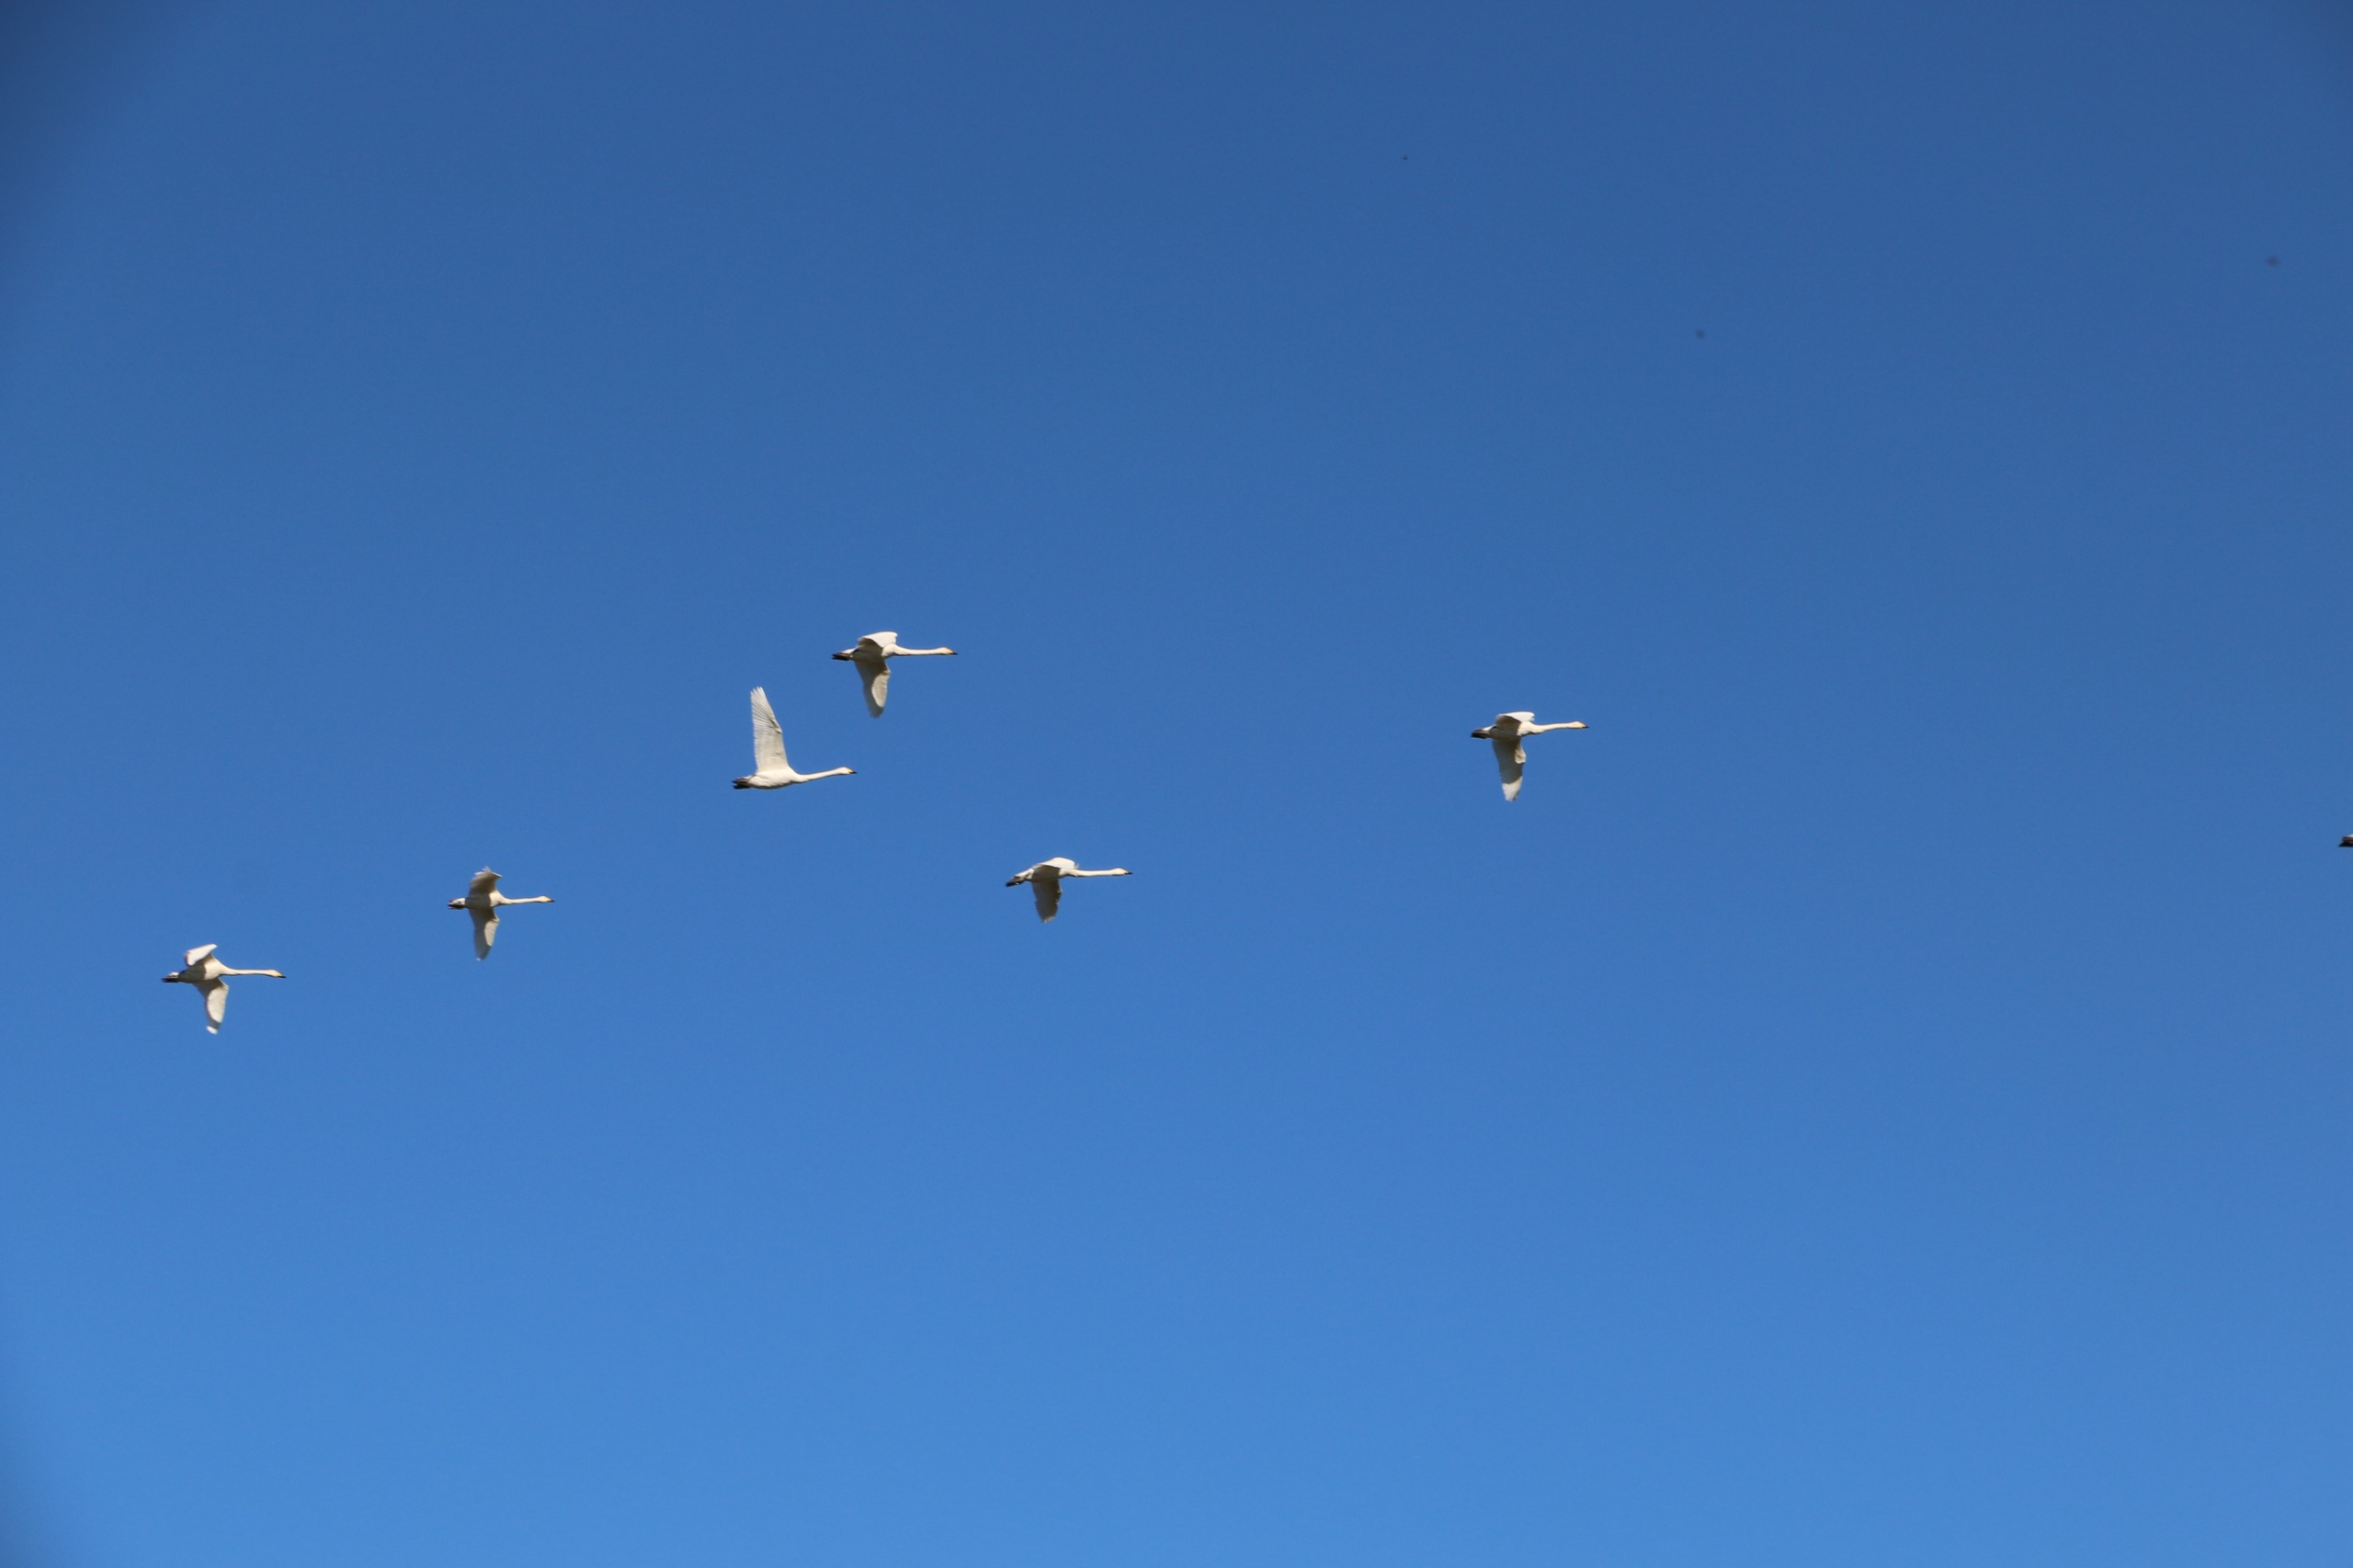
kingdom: Animalia
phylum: Chordata
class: Aves
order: Anseriformes
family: Anatidae
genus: Cygnus
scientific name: Cygnus cygnus
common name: Sangsvane
